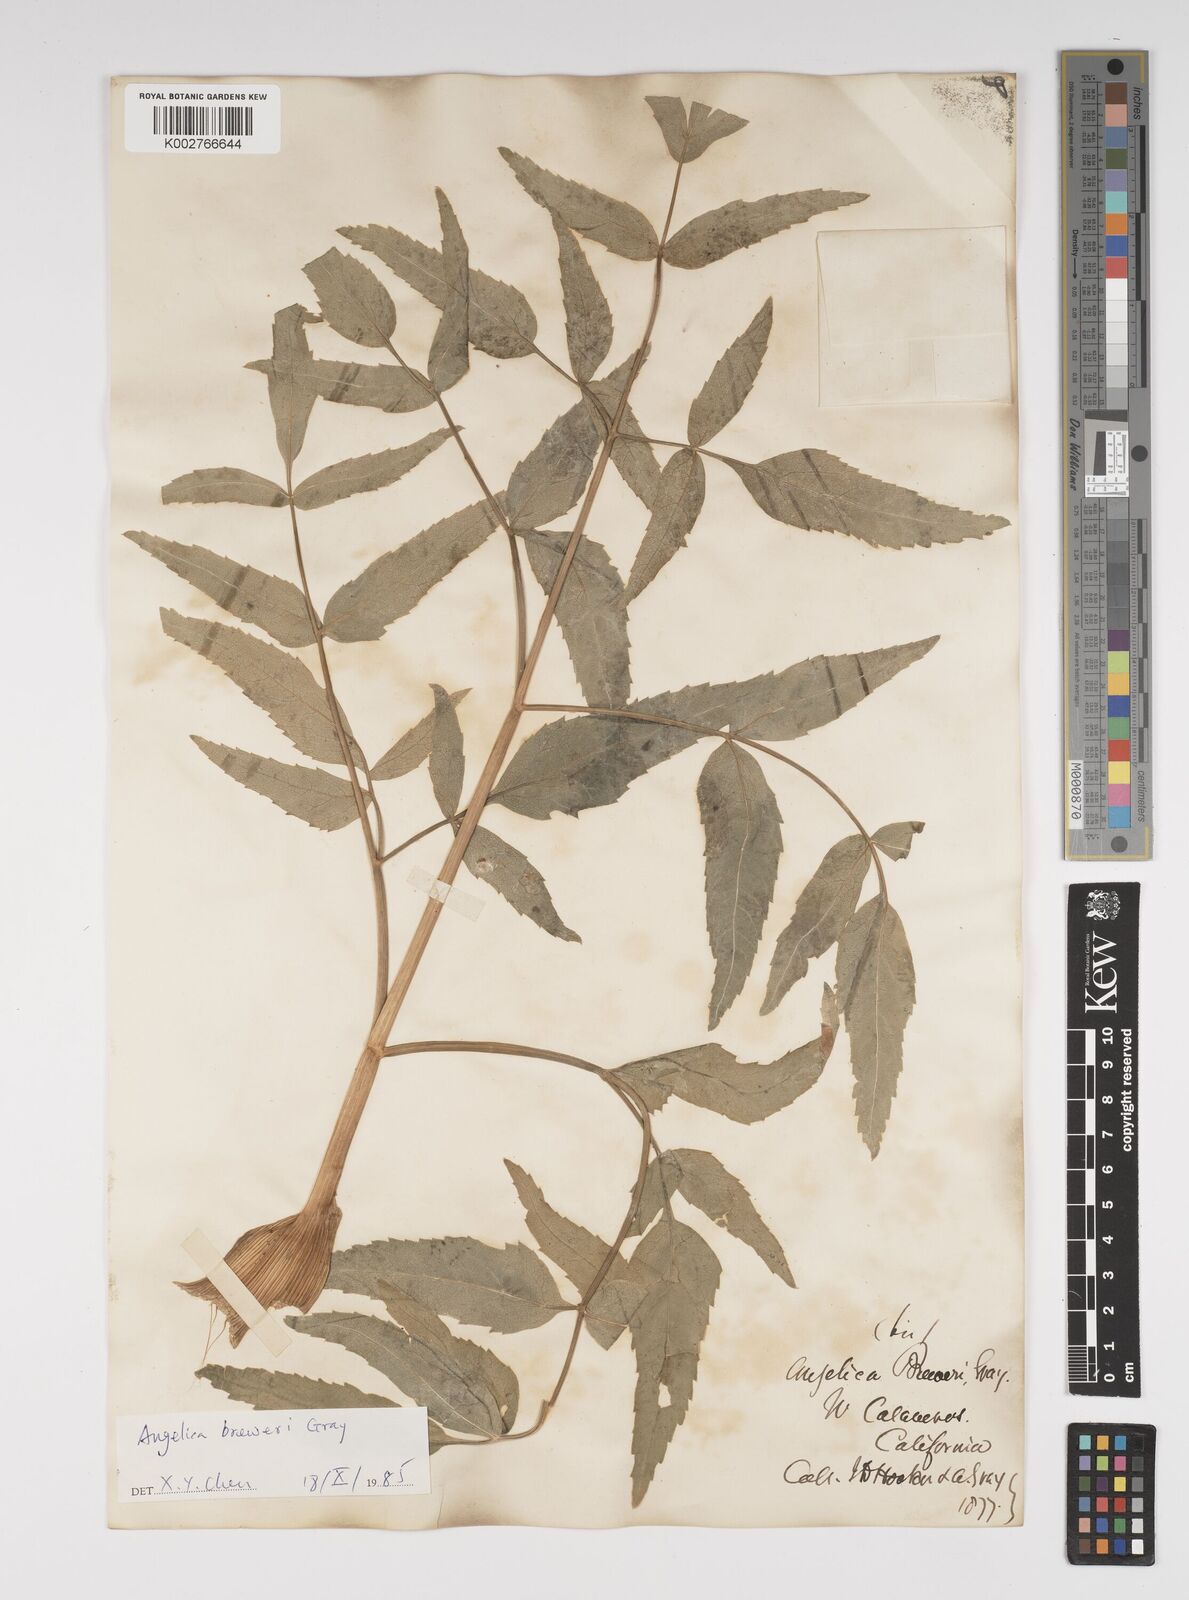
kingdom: Plantae
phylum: Tracheophyta
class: Magnoliopsida
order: Apiales
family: Apiaceae
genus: Angelica
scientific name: Angelica breweri
